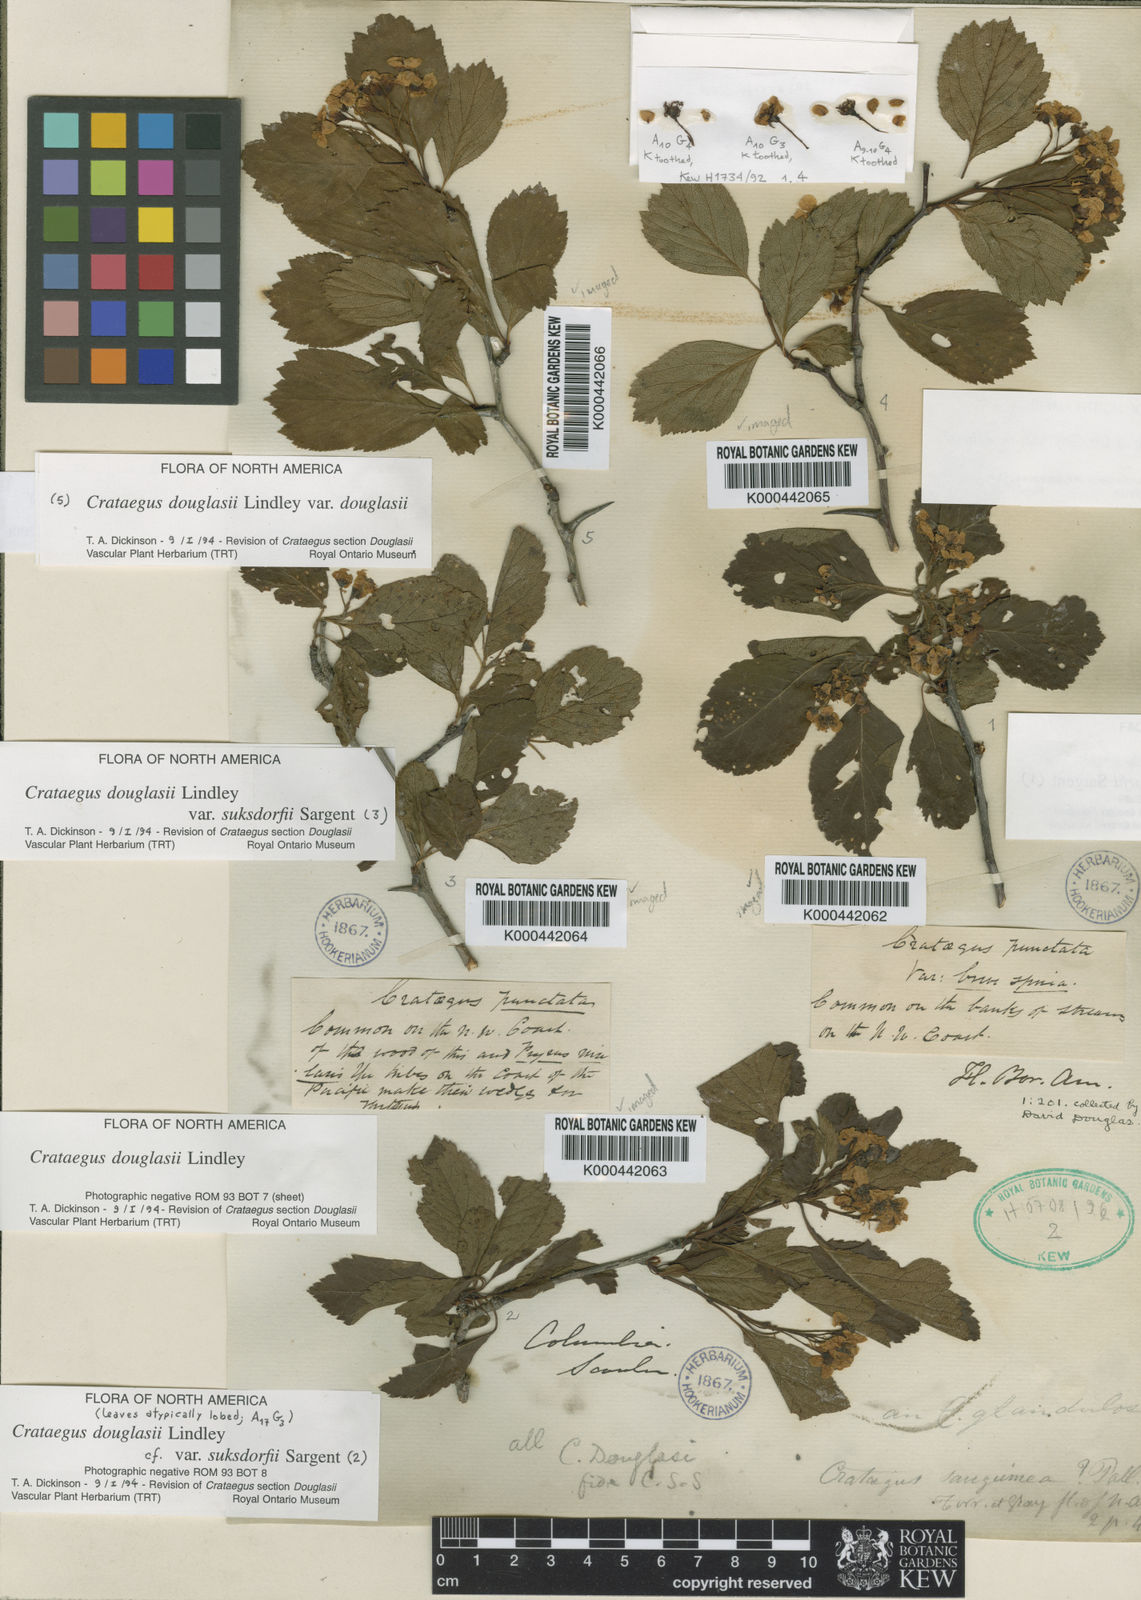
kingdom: Plantae
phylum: Tracheophyta
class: Magnoliopsida
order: Rosales
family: Rosaceae
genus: Crataegus
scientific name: Crataegus douglasii
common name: Black hawthorn
